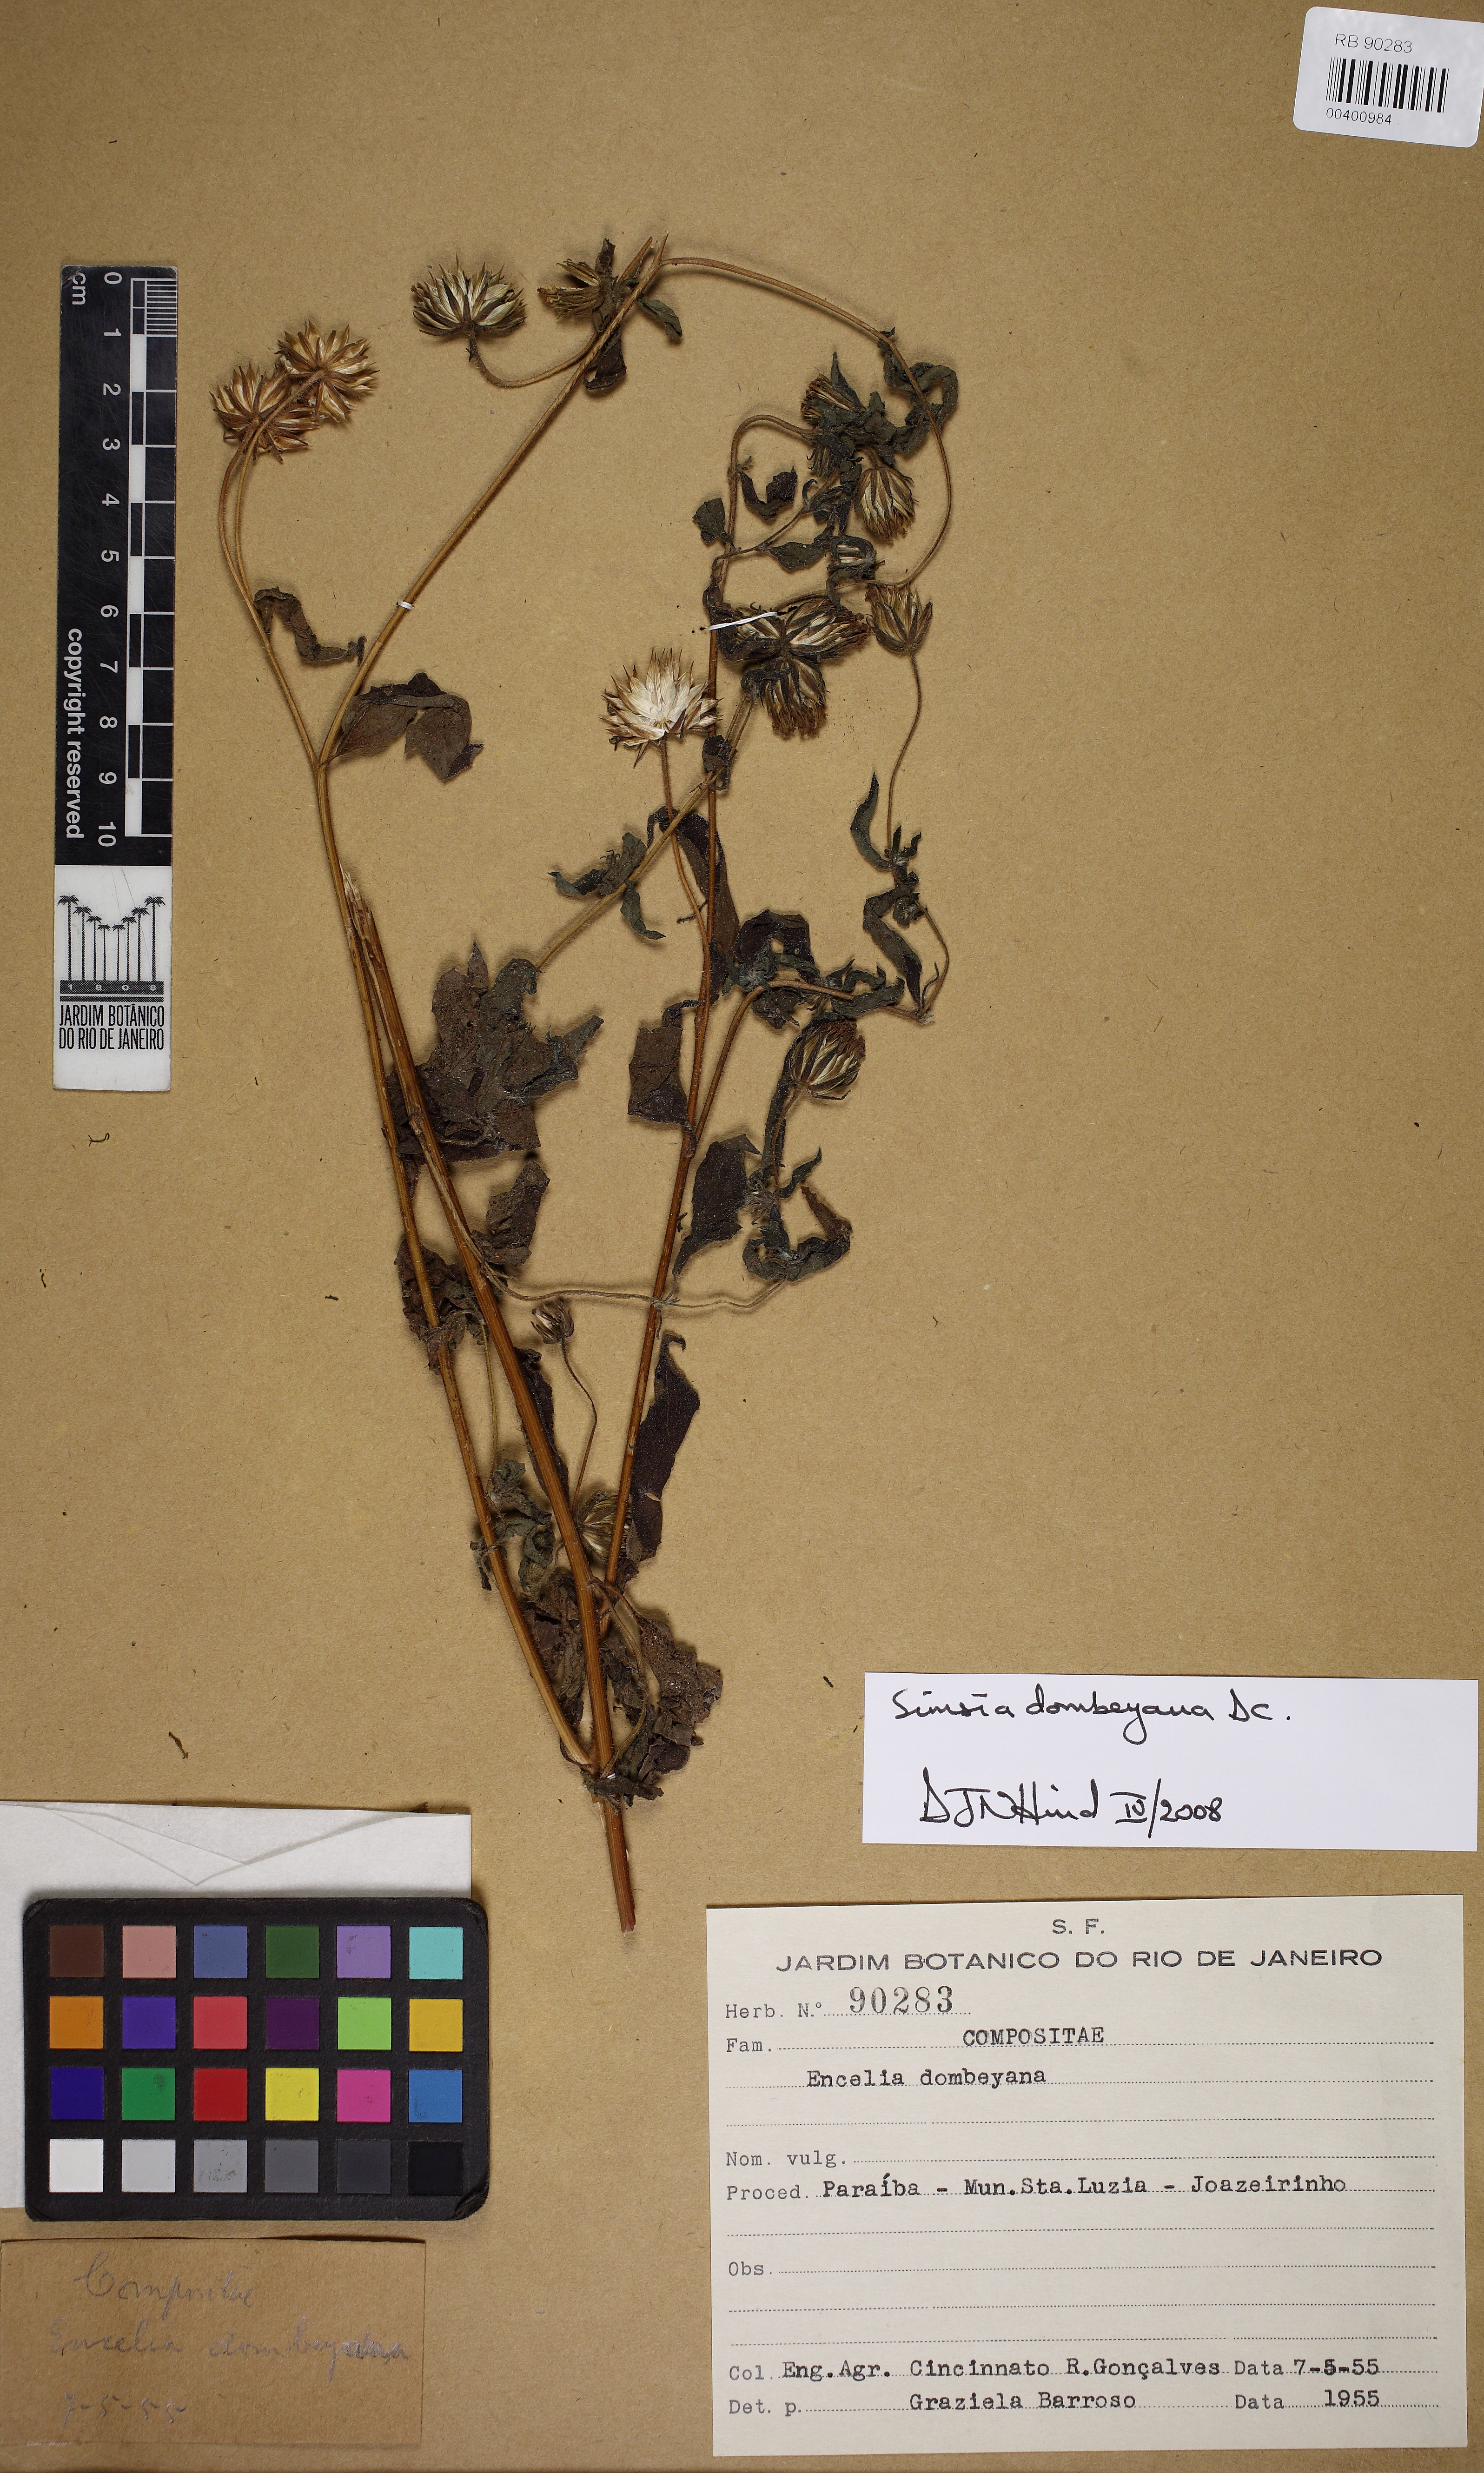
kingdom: Plantae
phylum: Tracheophyta
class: Magnoliopsida
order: Asterales
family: Asteraceae
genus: Simsia
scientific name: Simsia dombeyana
